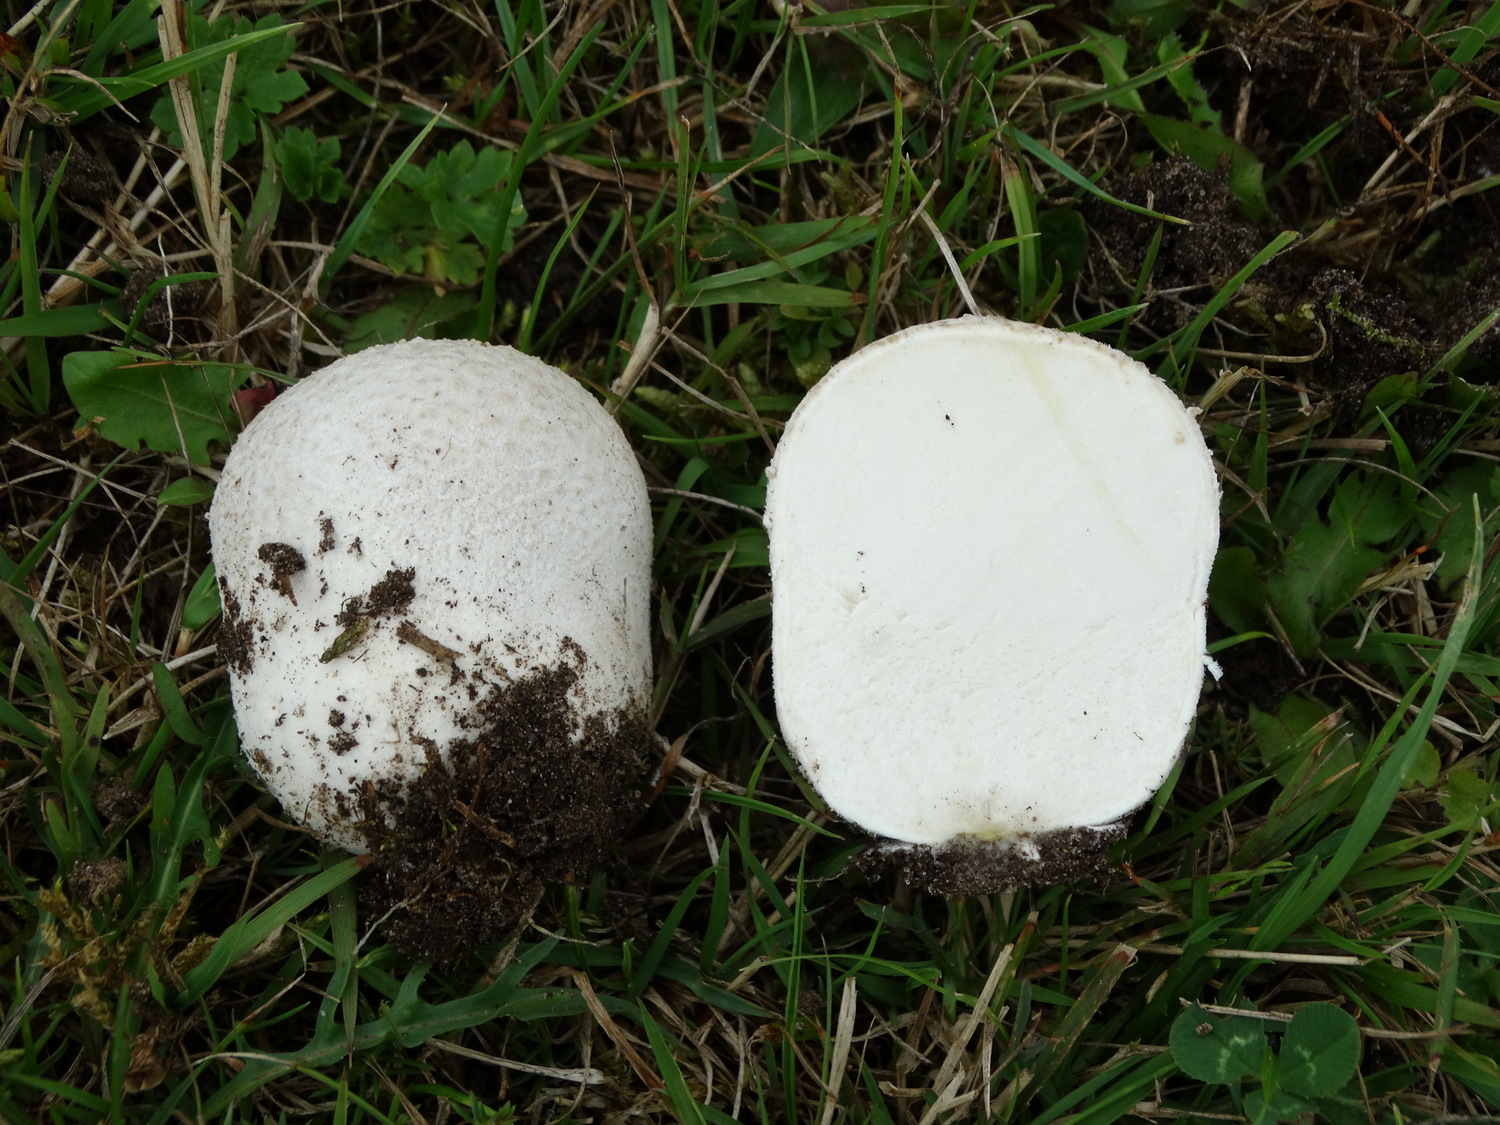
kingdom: Fungi
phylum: Basidiomycota
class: Agaricomycetes
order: Agaricales
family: Lycoperdaceae
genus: Bovistella
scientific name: Bovistella utriformis
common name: skællet støvbold
